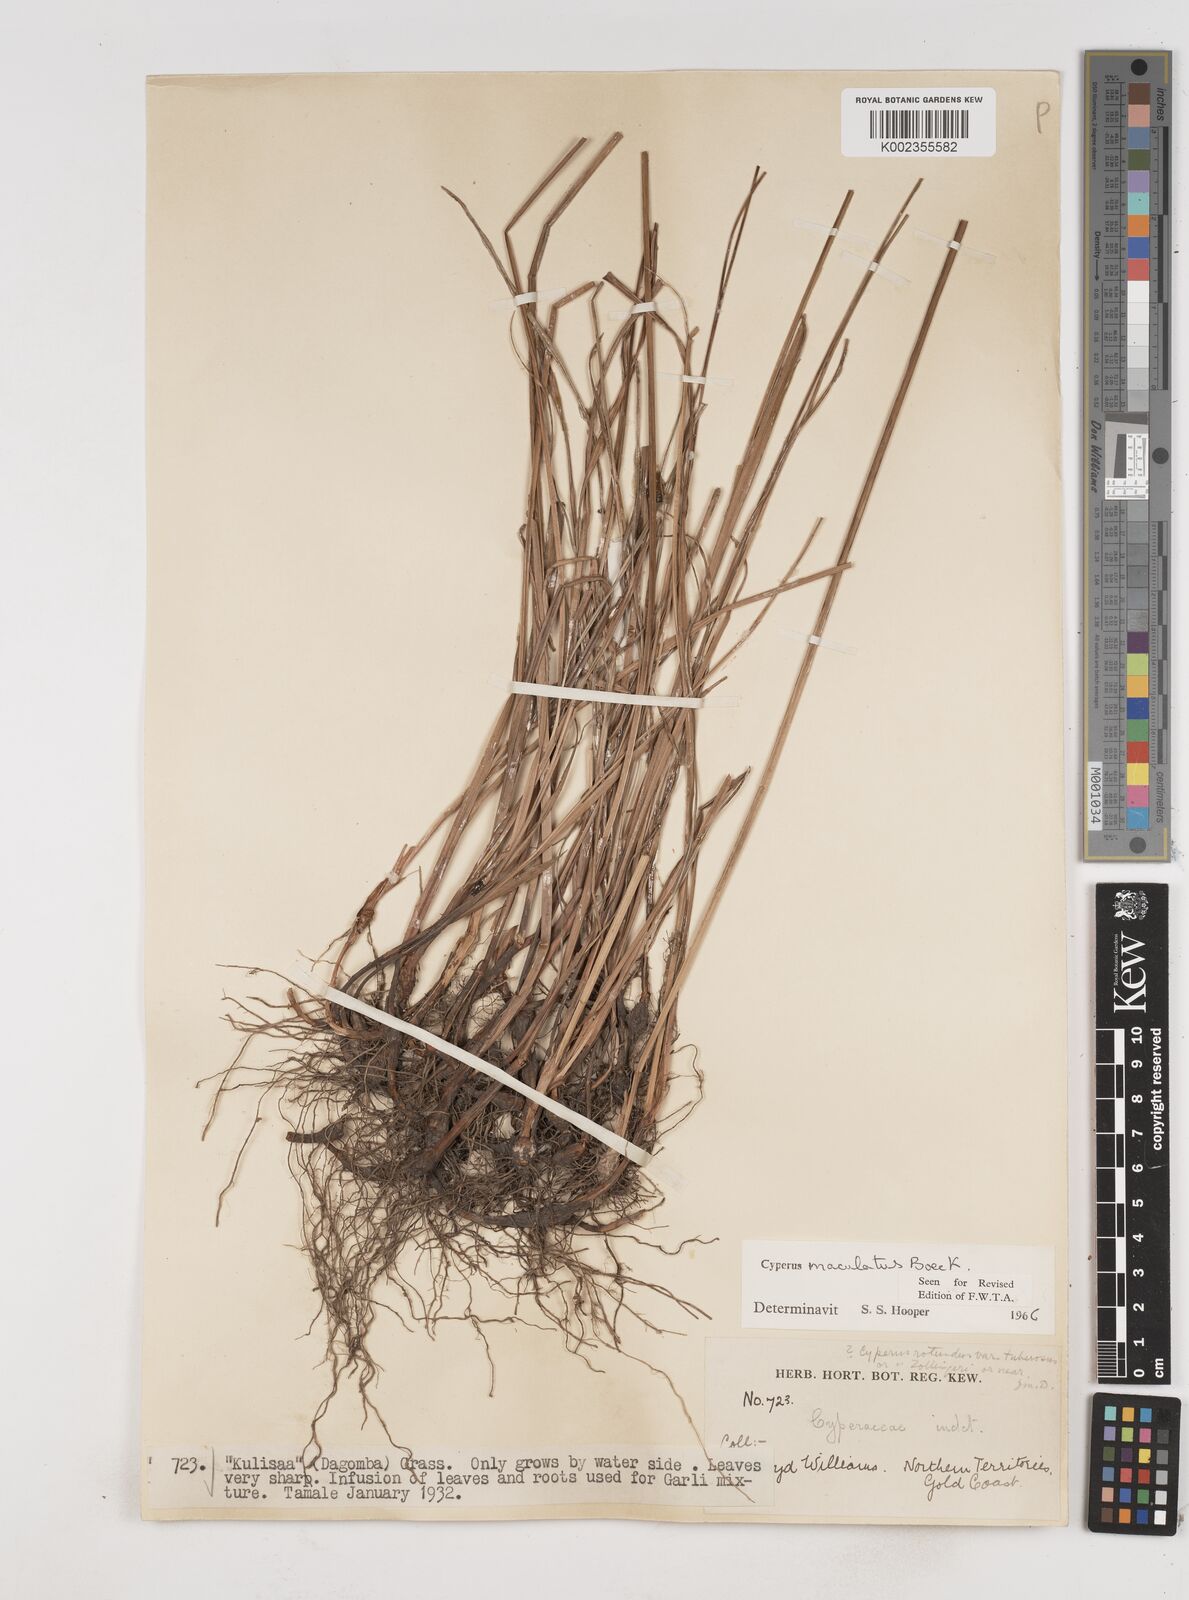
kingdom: Plantae
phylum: Tracheophyta
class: Liliopsida
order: Poales
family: Cyperaceae
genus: Cyperus
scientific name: Cyperus maculatus
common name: Maculated sedge
